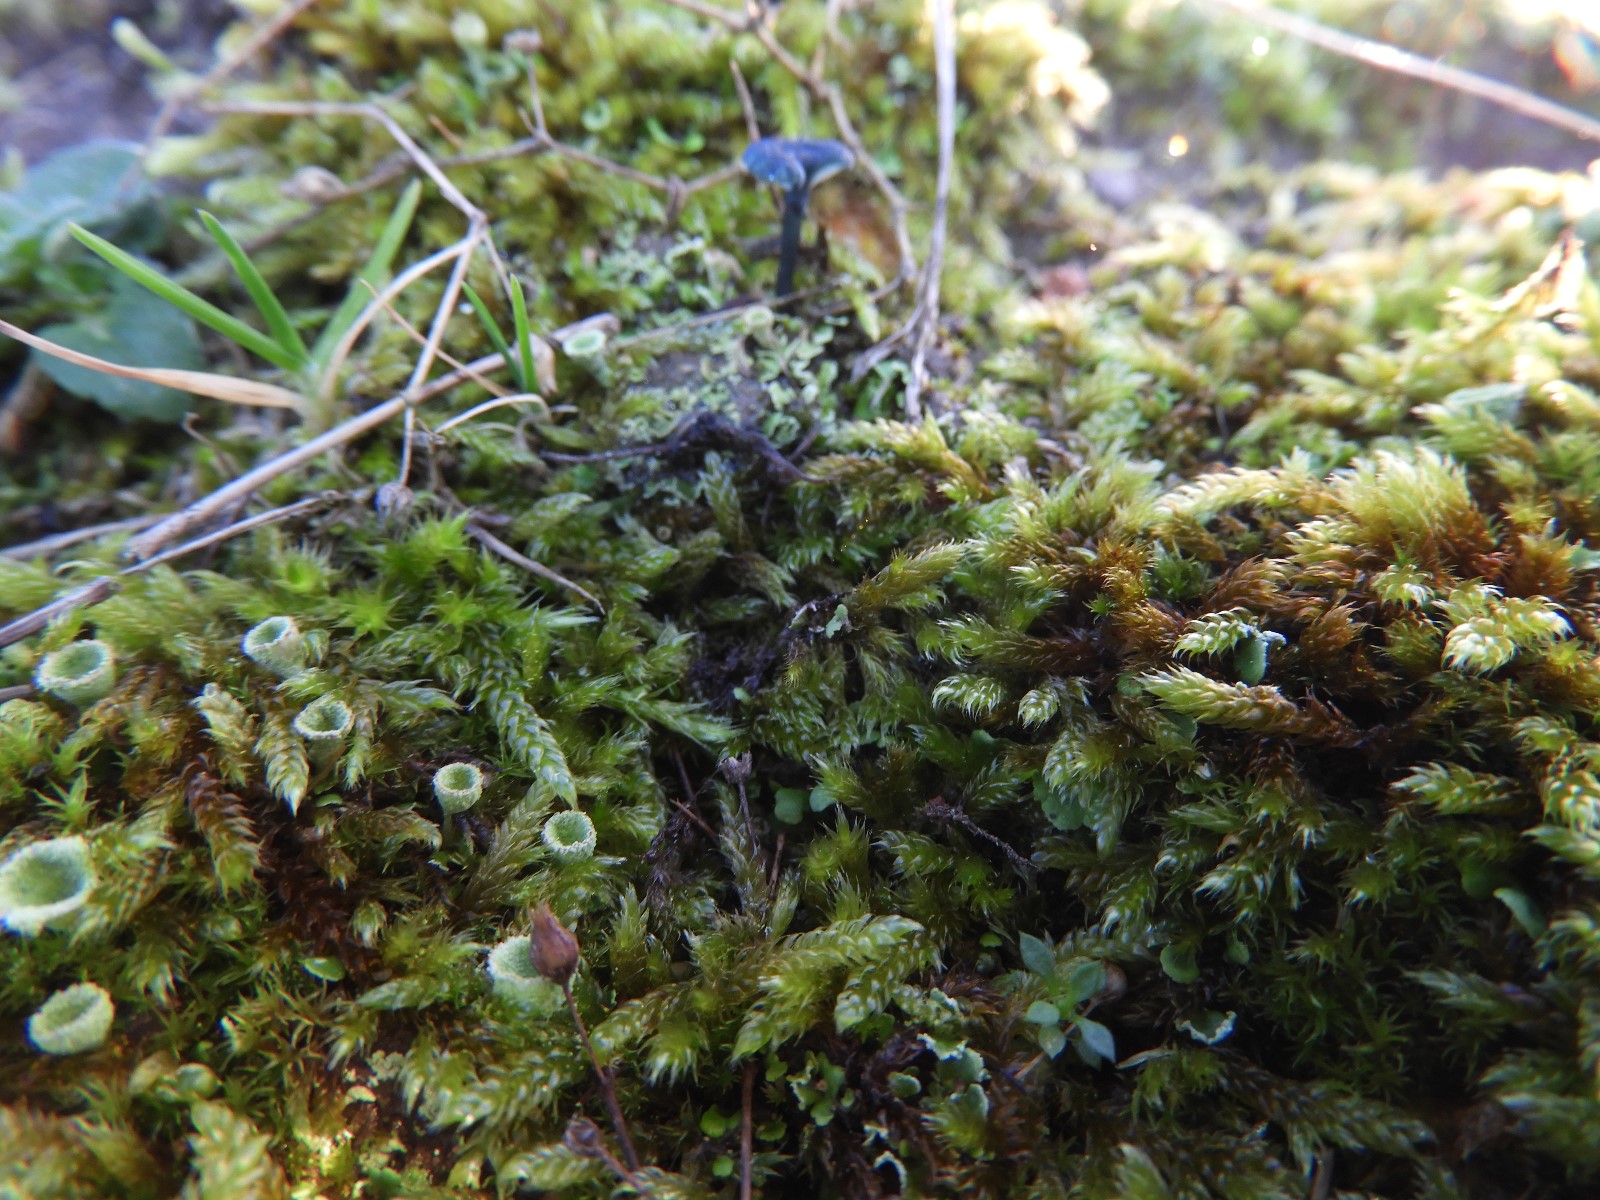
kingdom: Fungi
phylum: Basidiomycota
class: Agaricomycetes
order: Agaricales
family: Hygrophoraceae
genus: Arrhenia
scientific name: Arrhenia chlorocyanea
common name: blågrøn fontænehat
